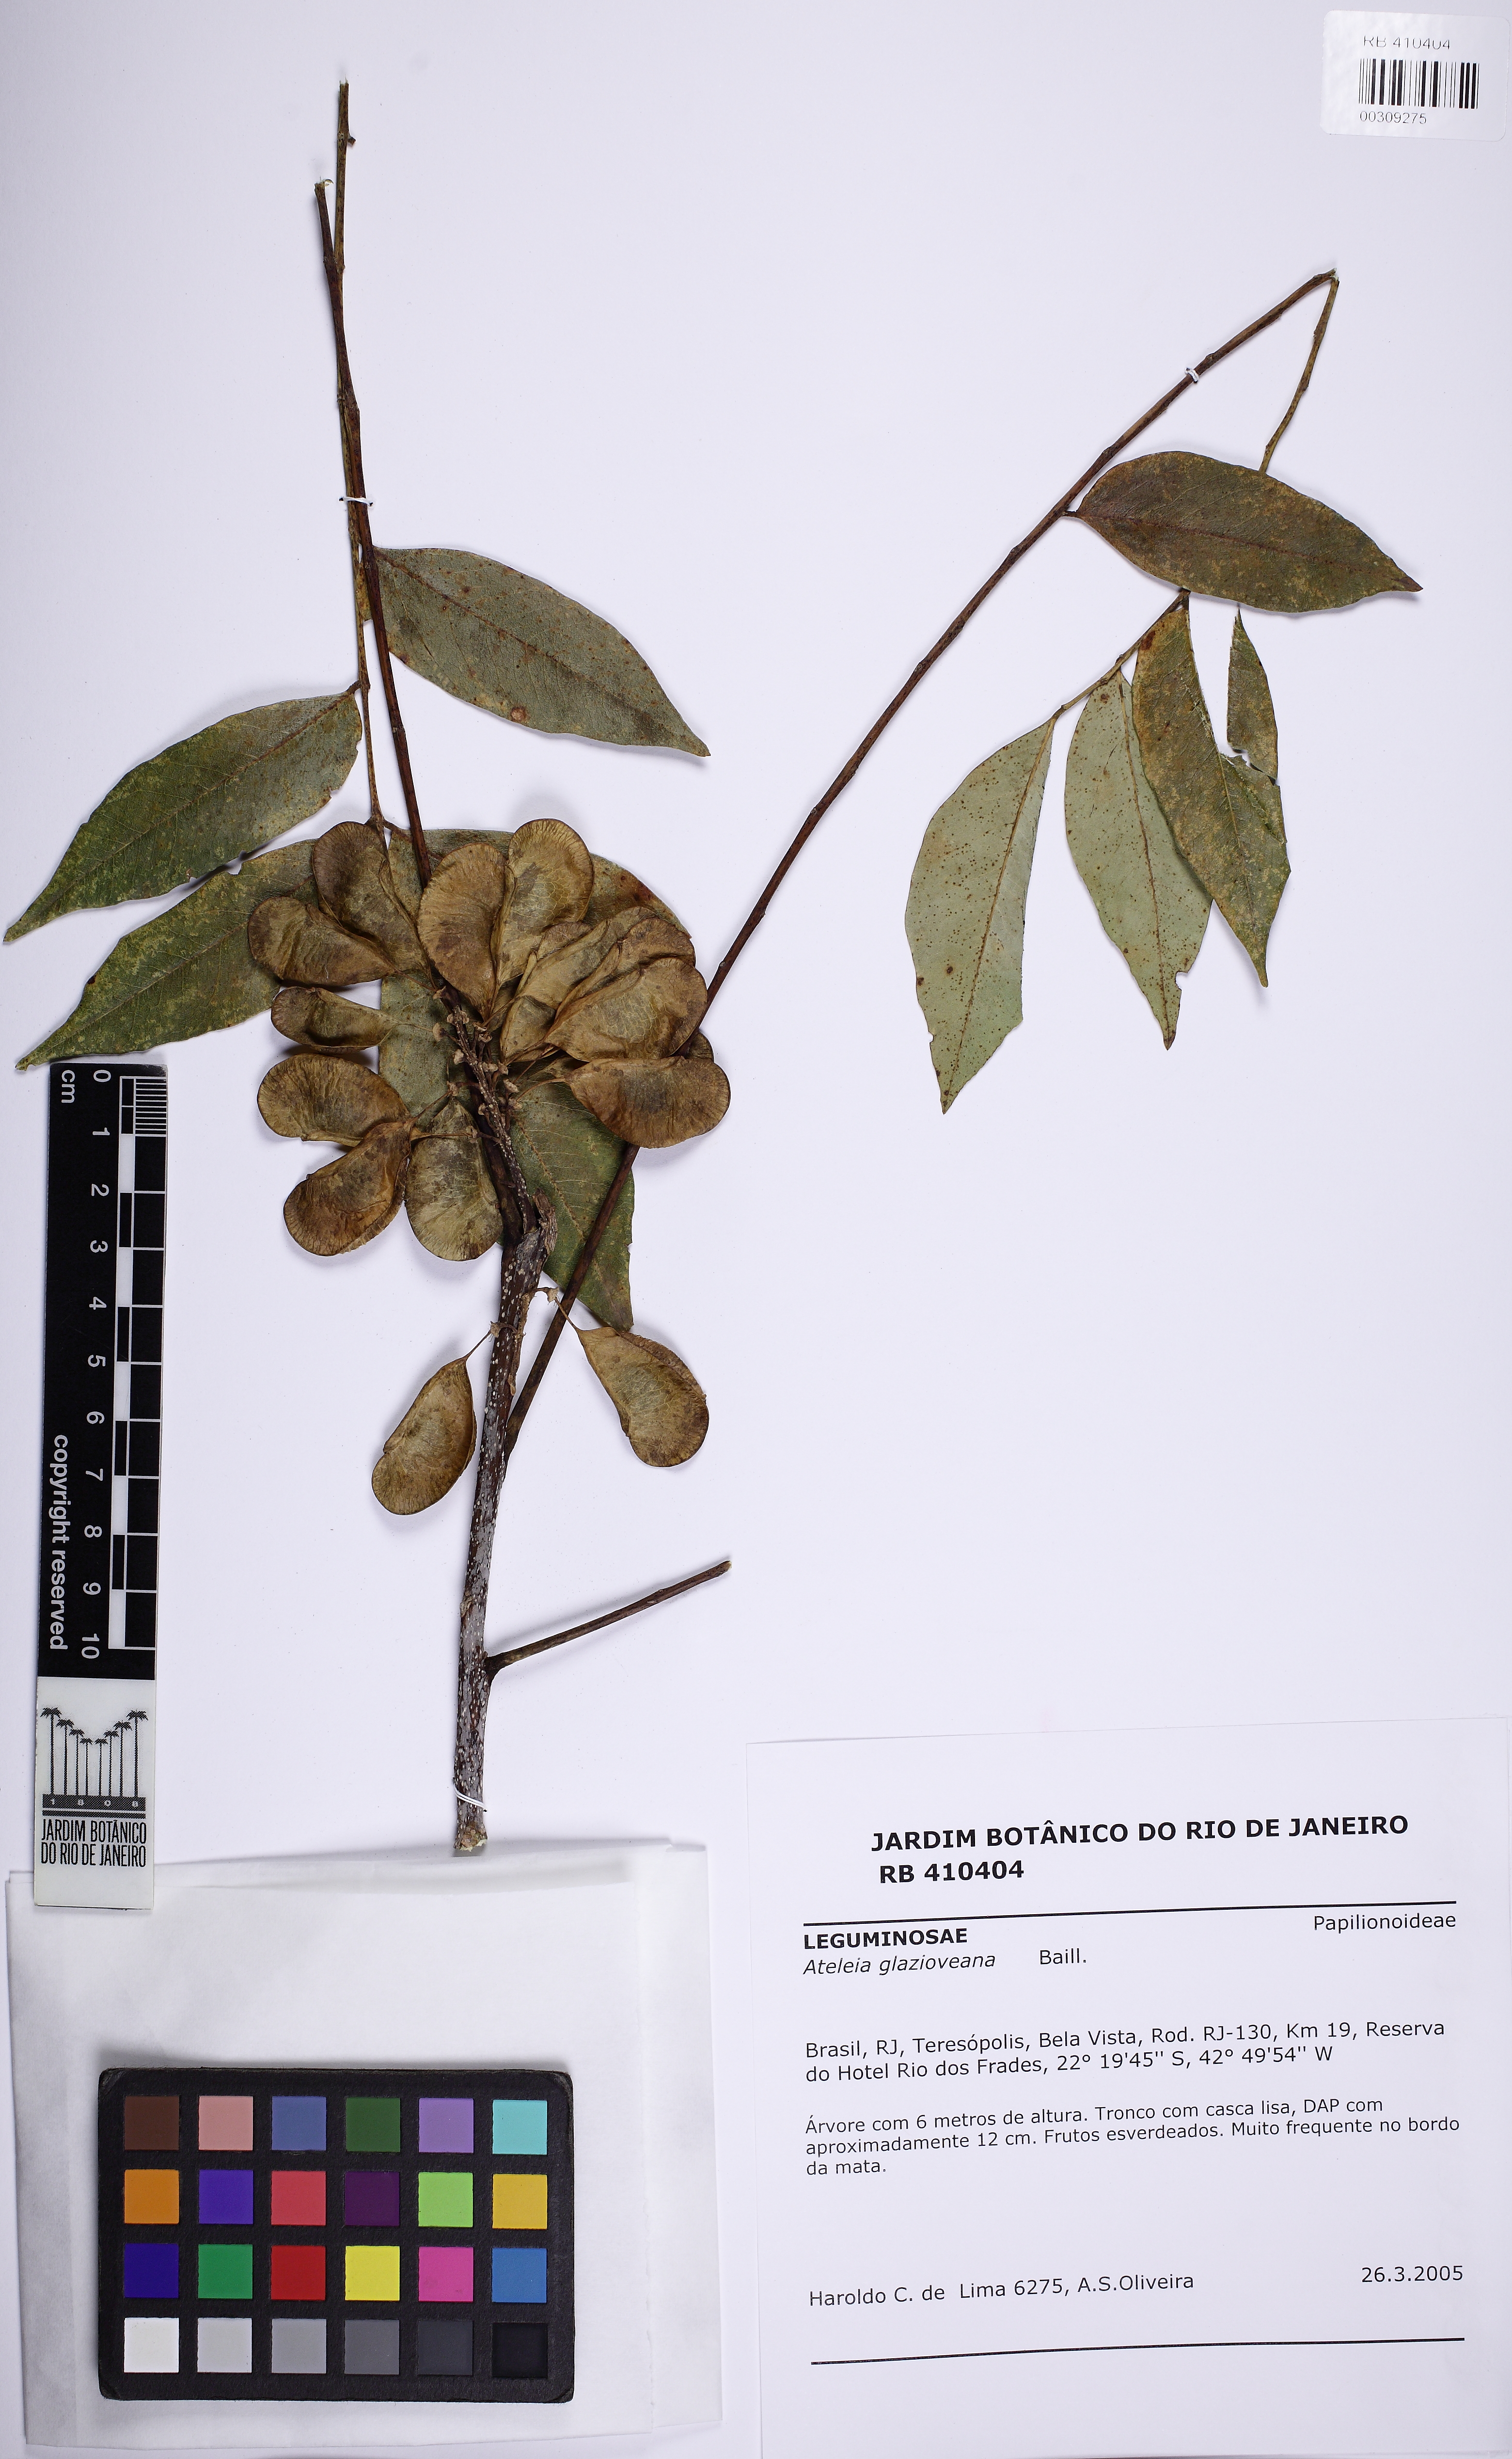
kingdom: Plantae
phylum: Tracheophyta
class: Magnoliopsida
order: Fabales
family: Fabaceae
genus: Ateleia
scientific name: Ateleia glazioveana
